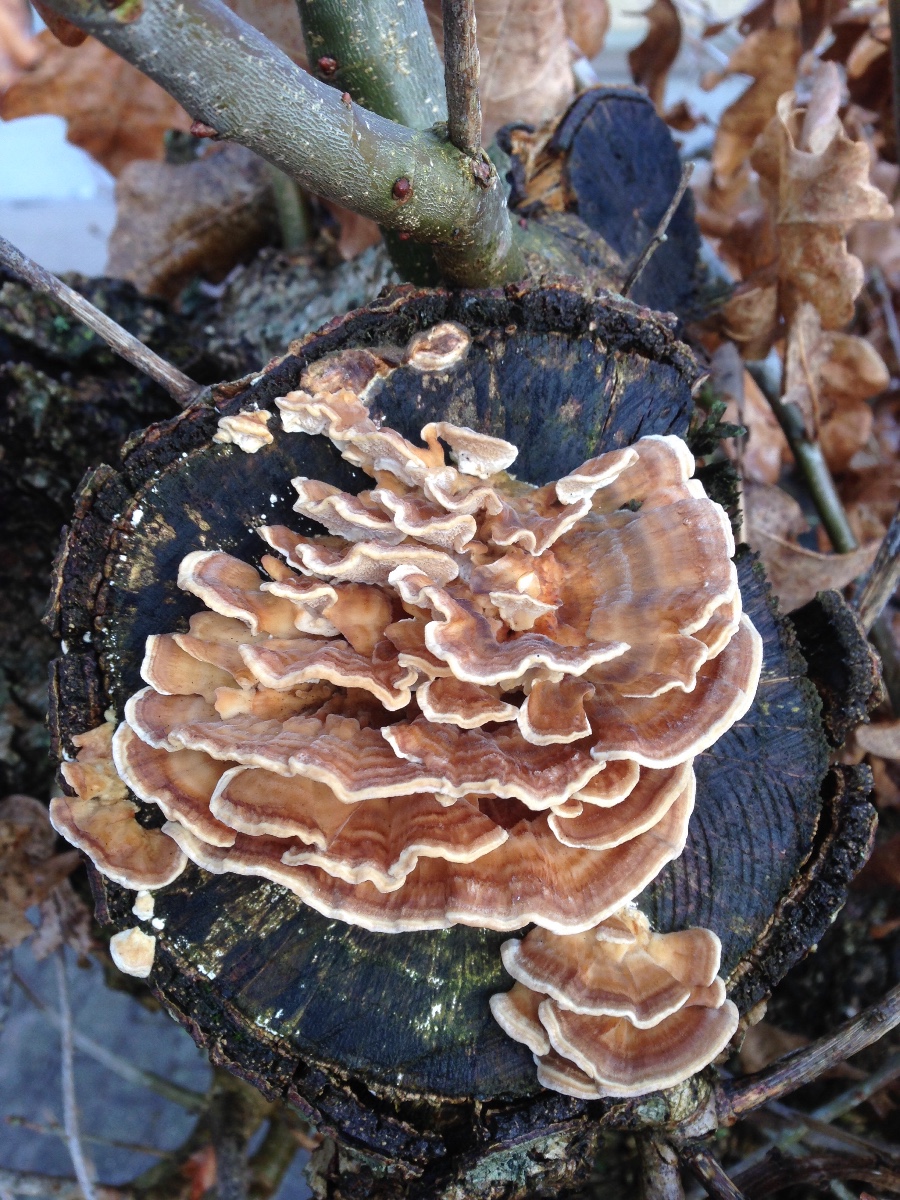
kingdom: Fungi
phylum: Basidiomycota
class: Agaricomycetes
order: Polyporales
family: Polyporaceae
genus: Trametes
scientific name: Trametes versicolor
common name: broget læderporesvamp
